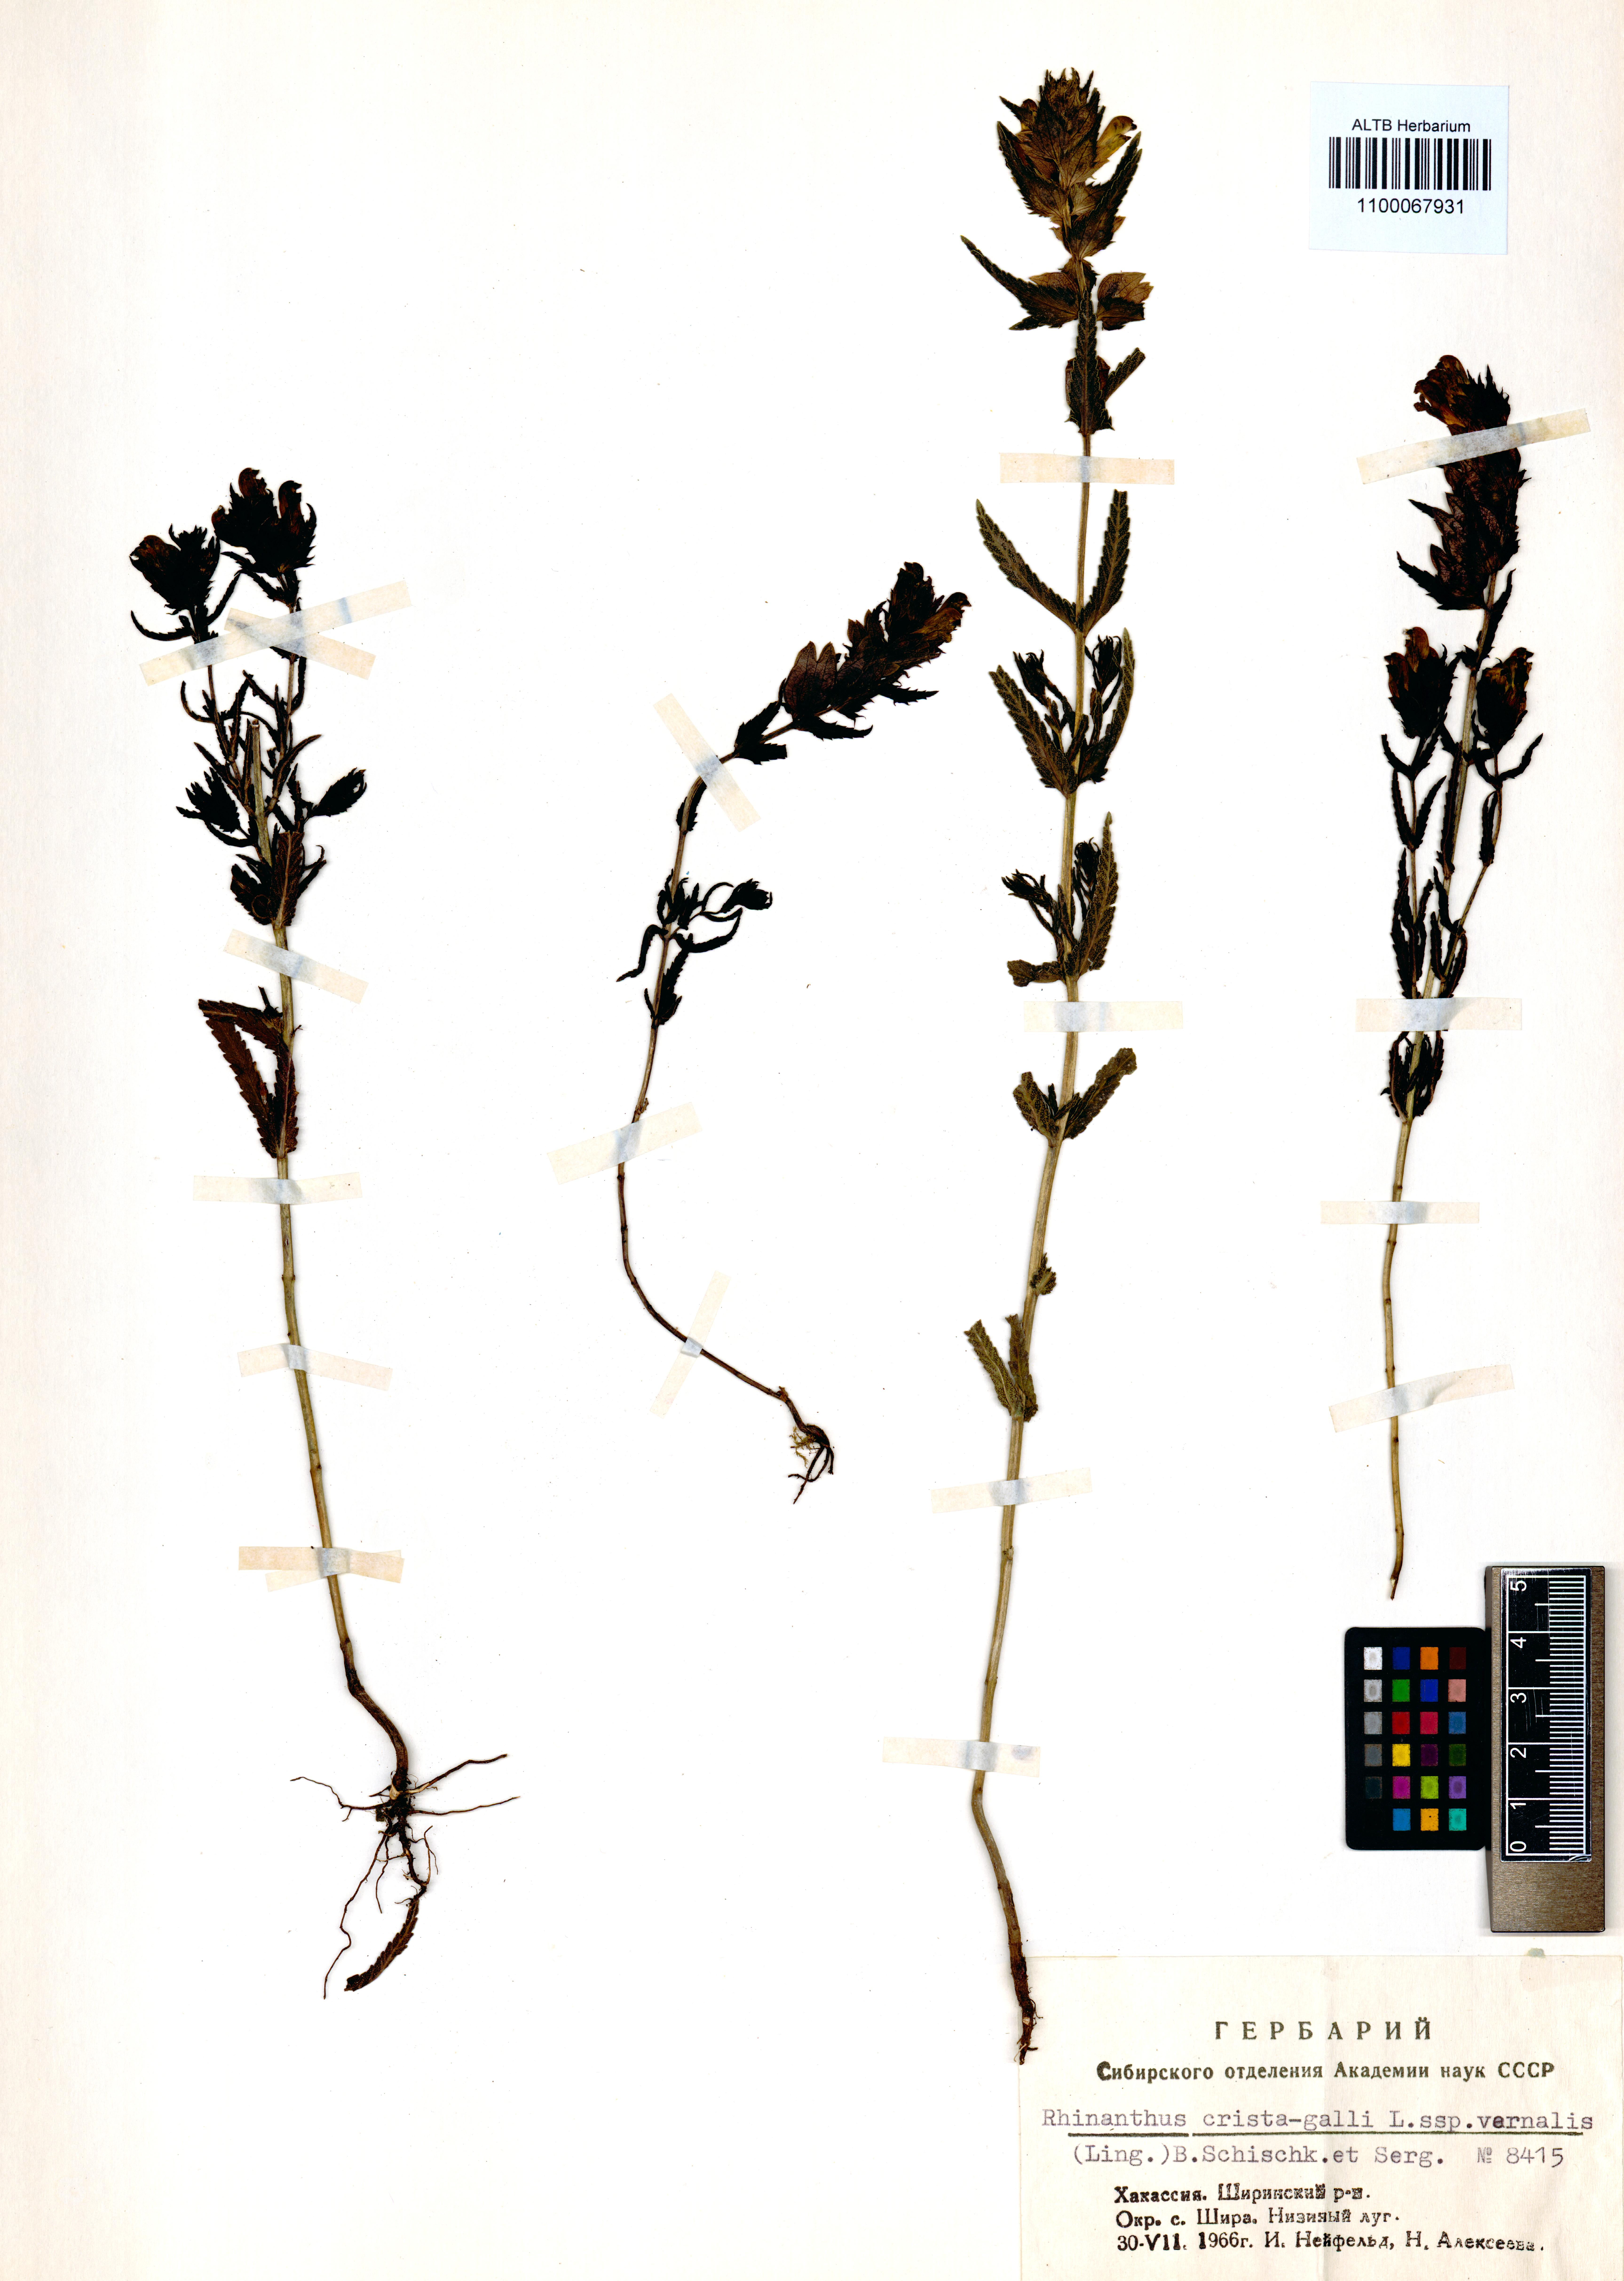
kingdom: Plantae
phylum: Tracheophyta
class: Magnoliopsida
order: Lamiales
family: Orobanchaceae
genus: Rhinanthus
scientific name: Rhinanthus minor
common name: Yellow-rattle
